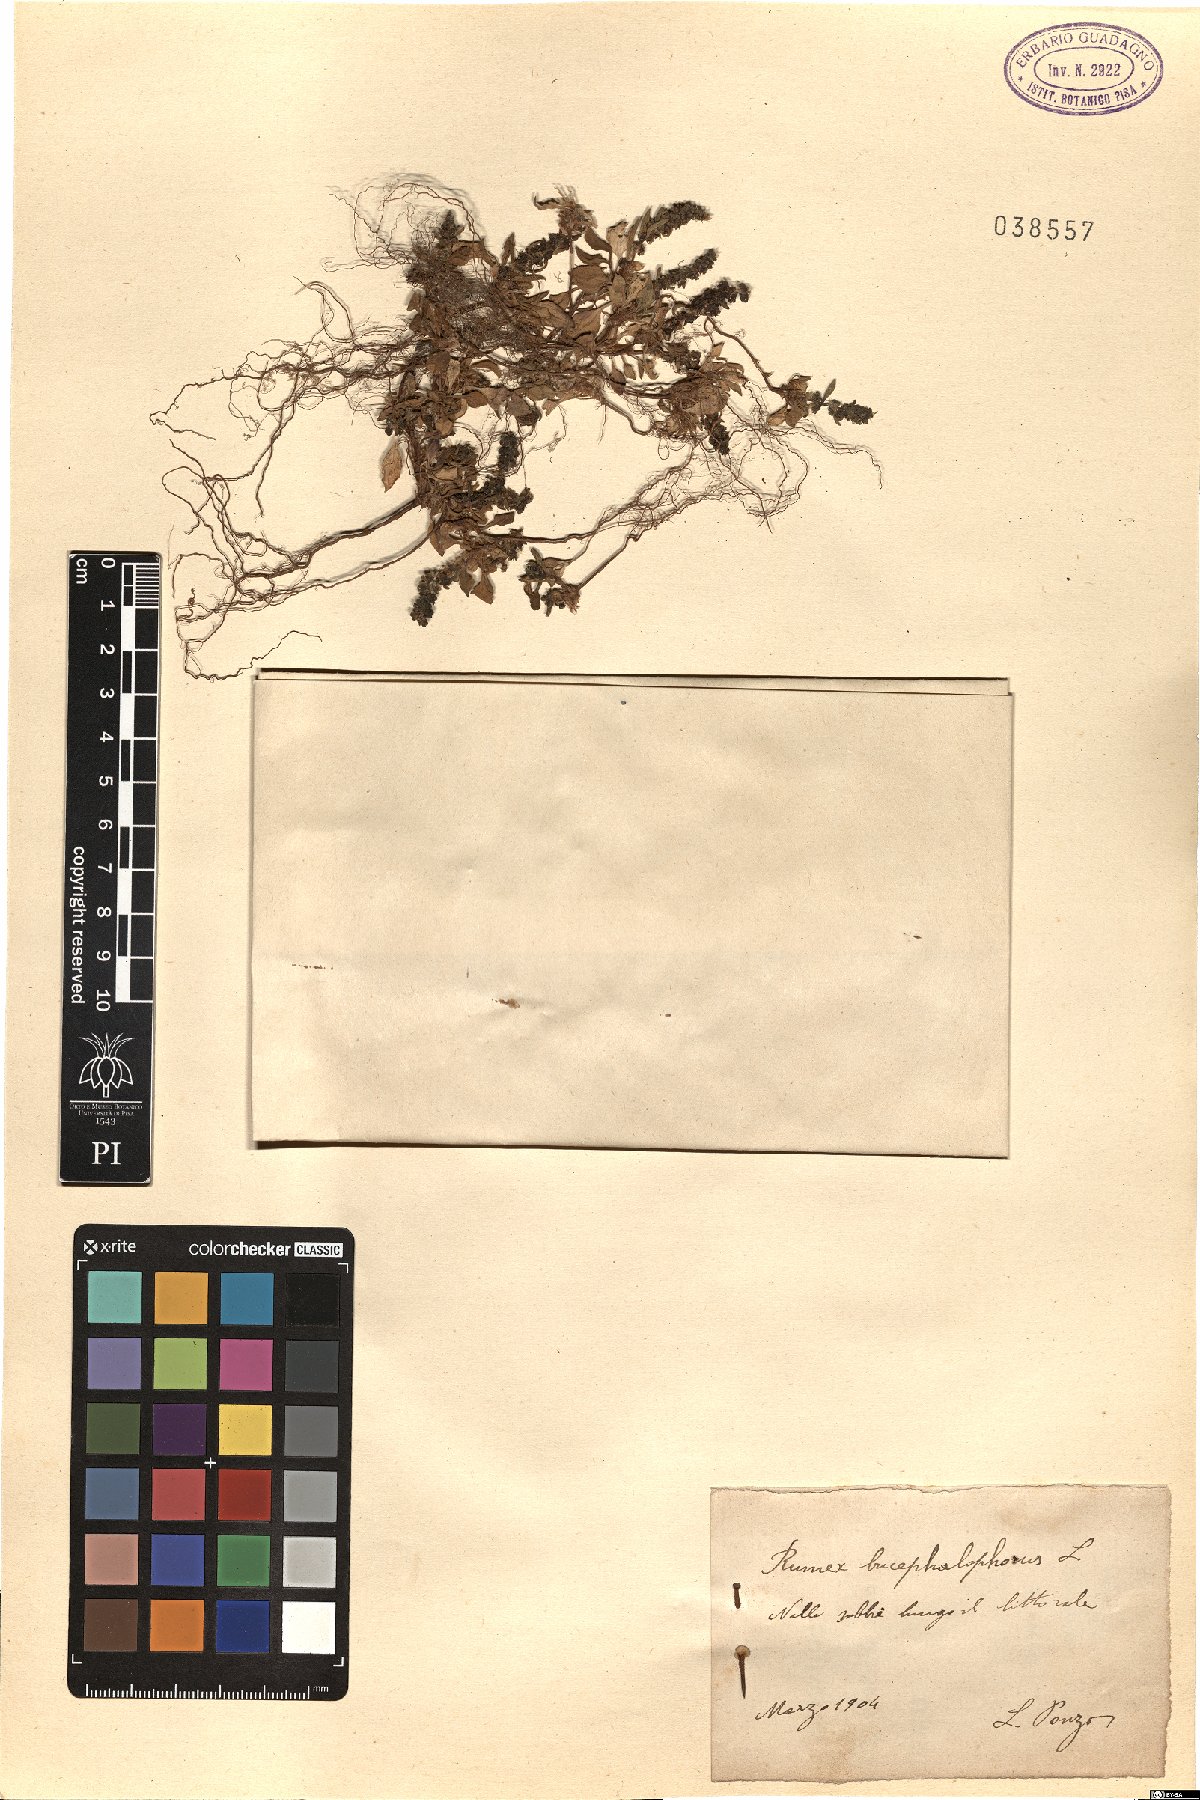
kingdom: Plantae
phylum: Tracheophyta
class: Magnoliopsida
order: Caryophyllales
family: Polygonaceae
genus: Rumex
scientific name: Rumex bucephalophorus
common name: Red dock
